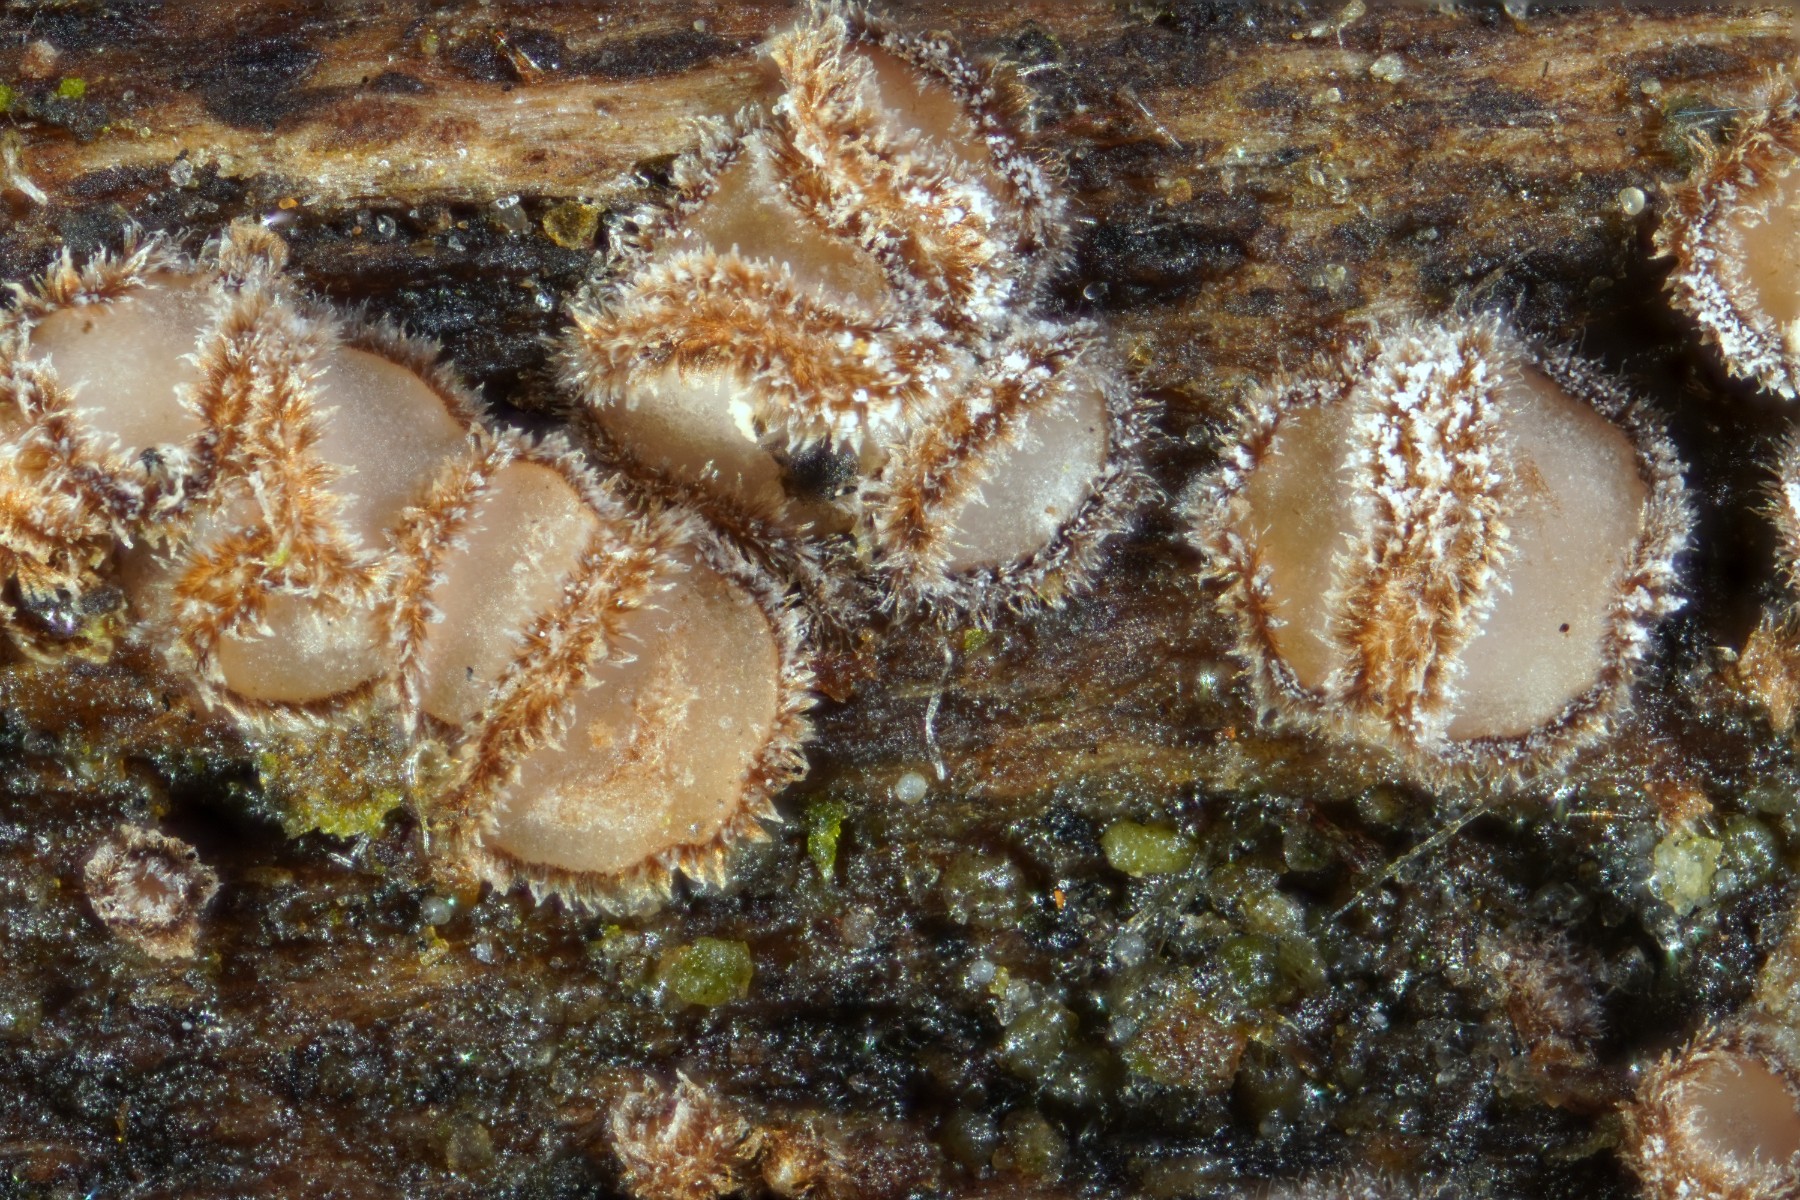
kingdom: Fungi
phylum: Ascomycota
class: Leotiomycetes
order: Helotiales
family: Solenopeziaceae
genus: Lasiobelonium
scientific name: Lasiobelonium variegatum
